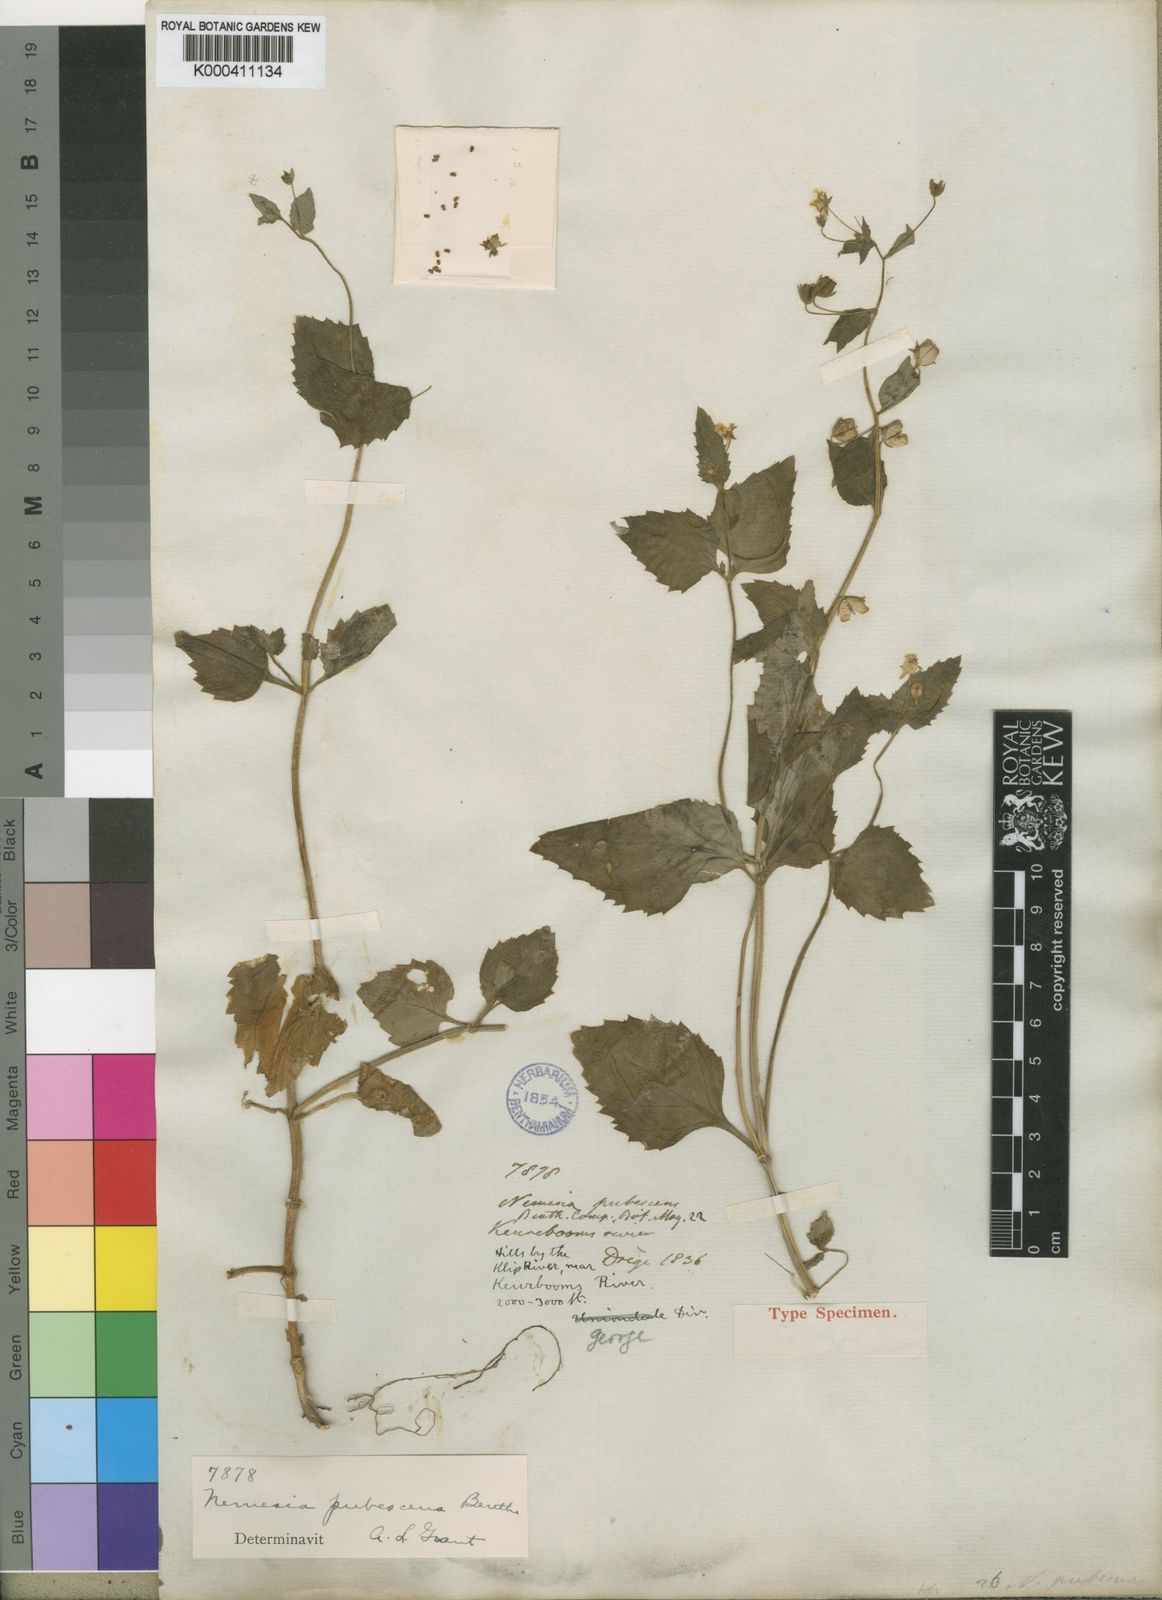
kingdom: Plantae
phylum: Tracheophyta
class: Magnoliopsida
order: Lamiales
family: Scrophulariaceae
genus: Nemesia
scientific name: Nemesia pubescens
